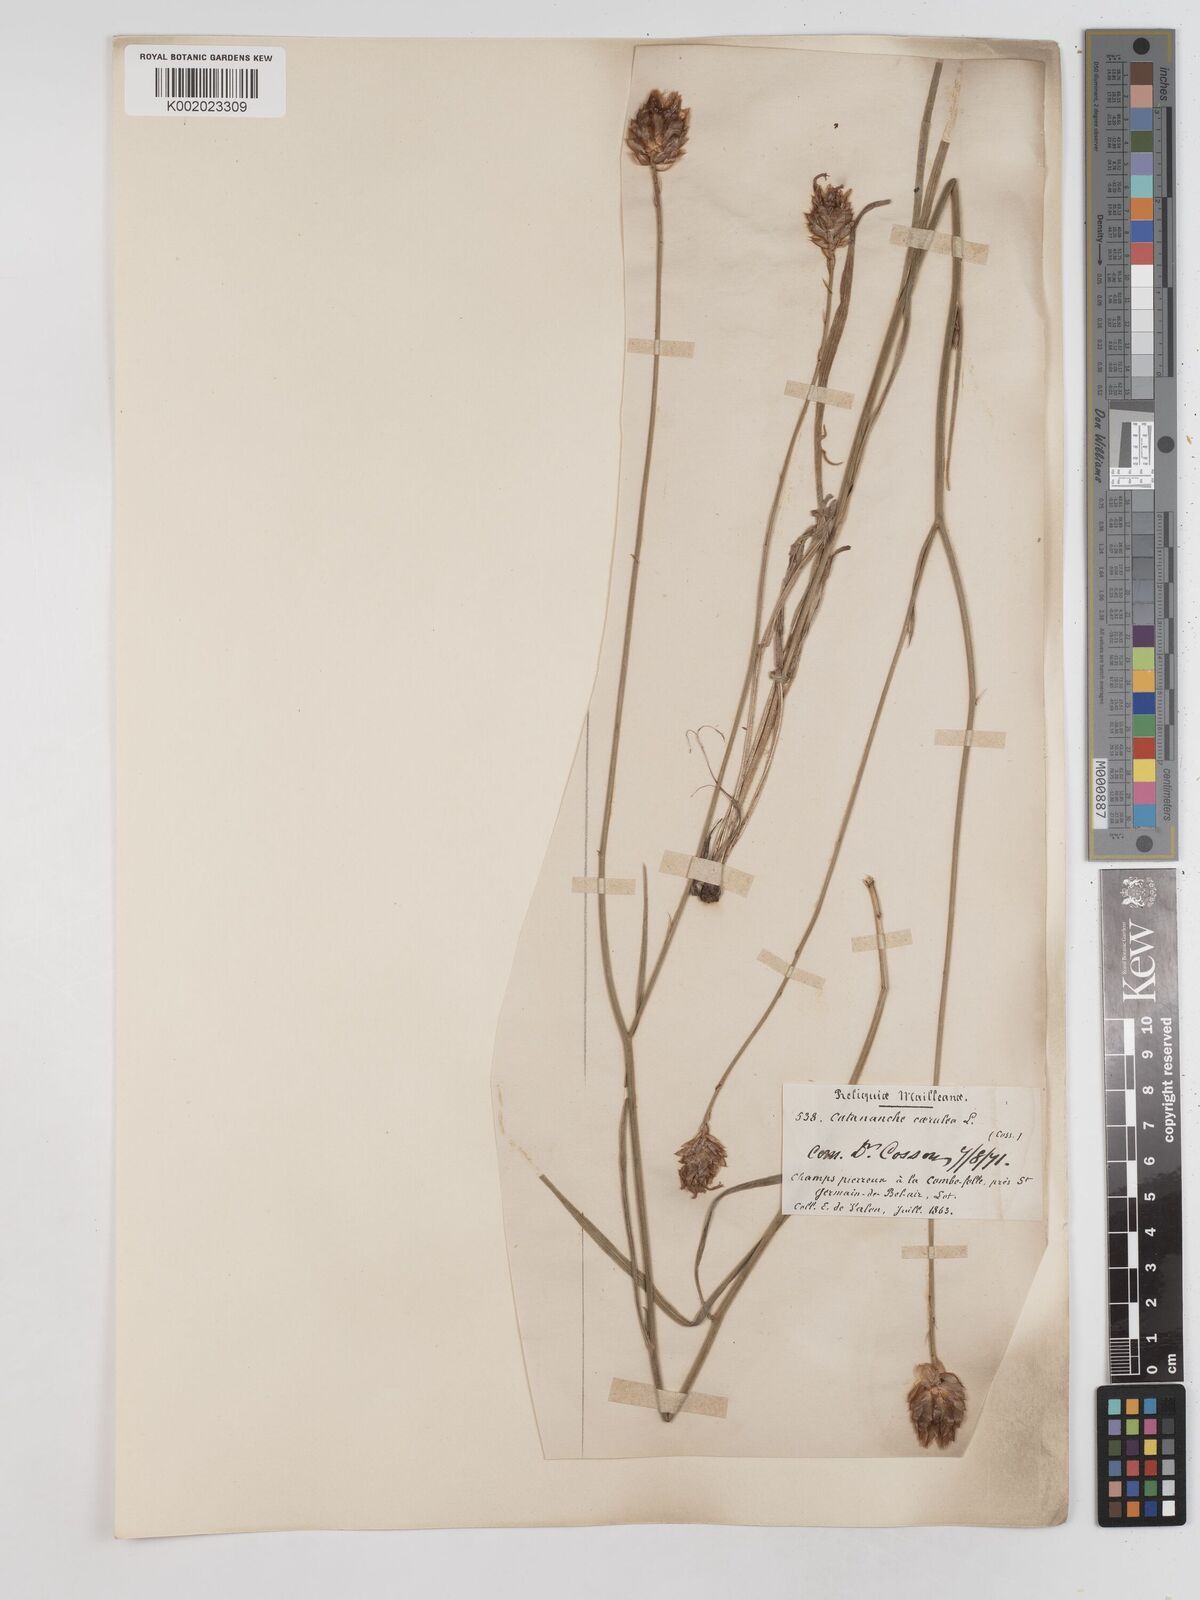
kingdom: Plantae
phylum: Tracheophyta
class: Magnoliopsida
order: Asterales
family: Asteraceae
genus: Catananche
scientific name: Catananche caerulea
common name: Blue cupidone
